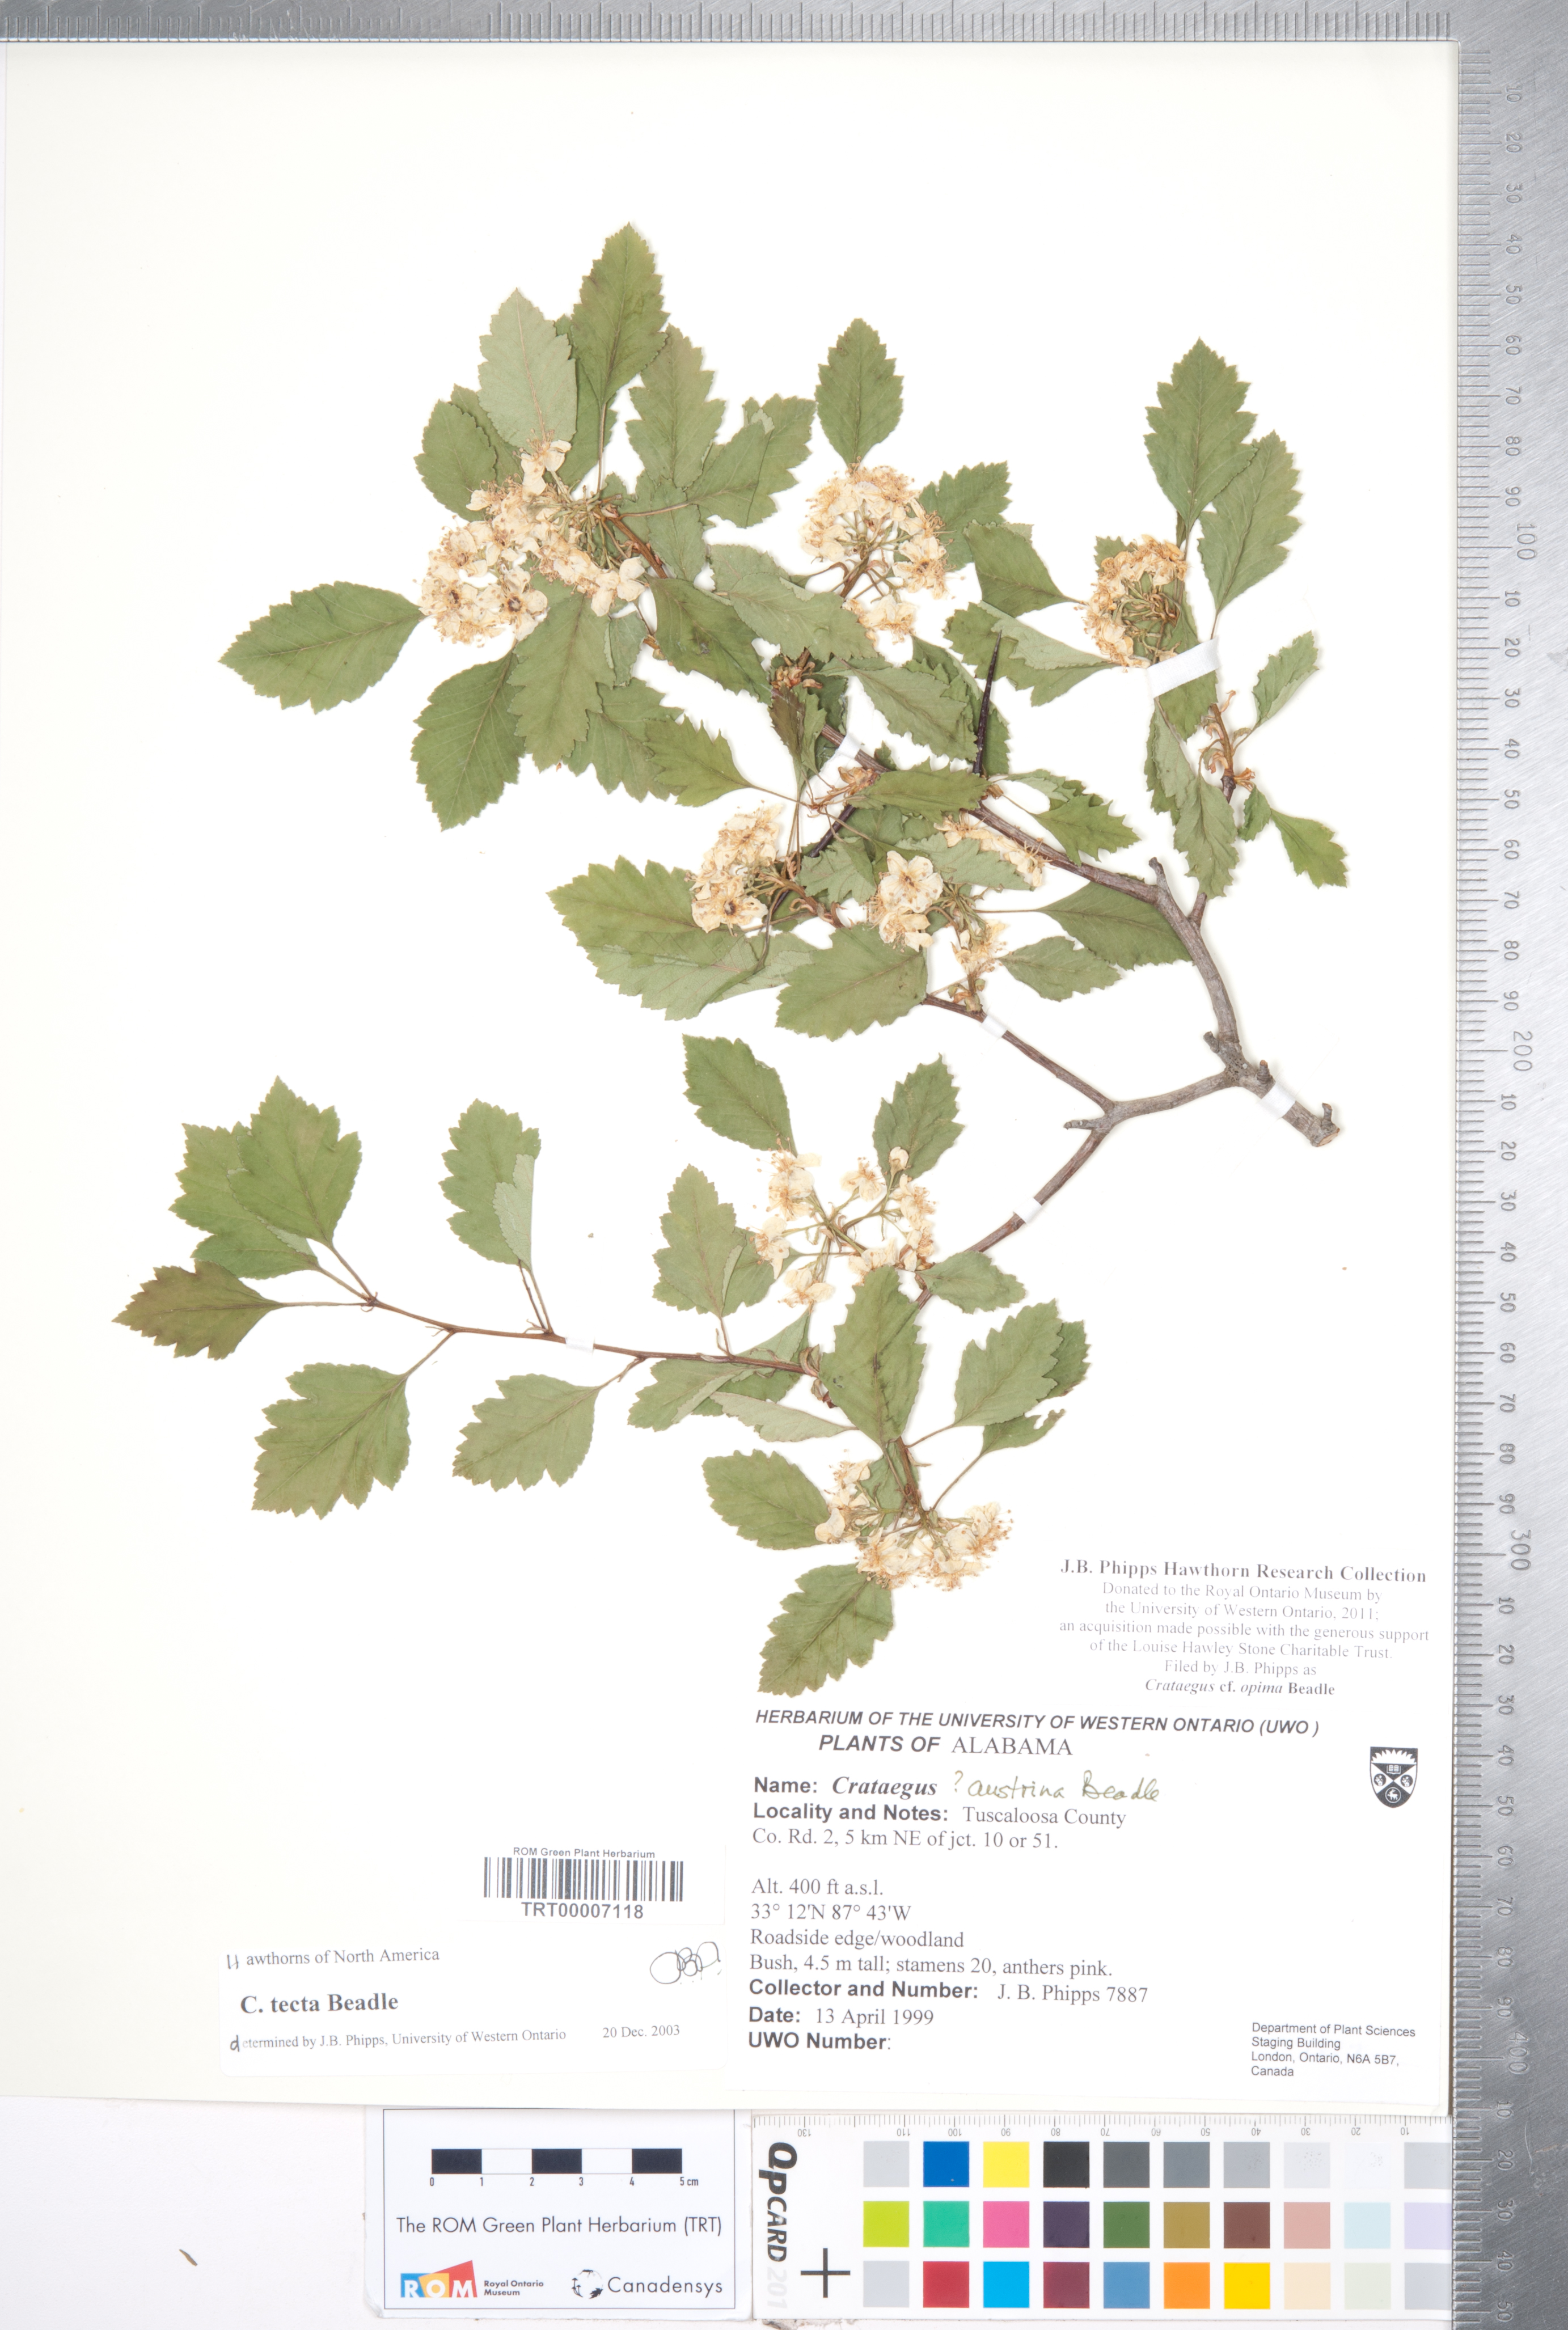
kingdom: Plantae
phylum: Tracheophyta
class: Magnoliopsida
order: Rosales
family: Rosaceae
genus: Crataegus
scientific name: Crataegus pulcherrima
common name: Beautiful hawthorn
